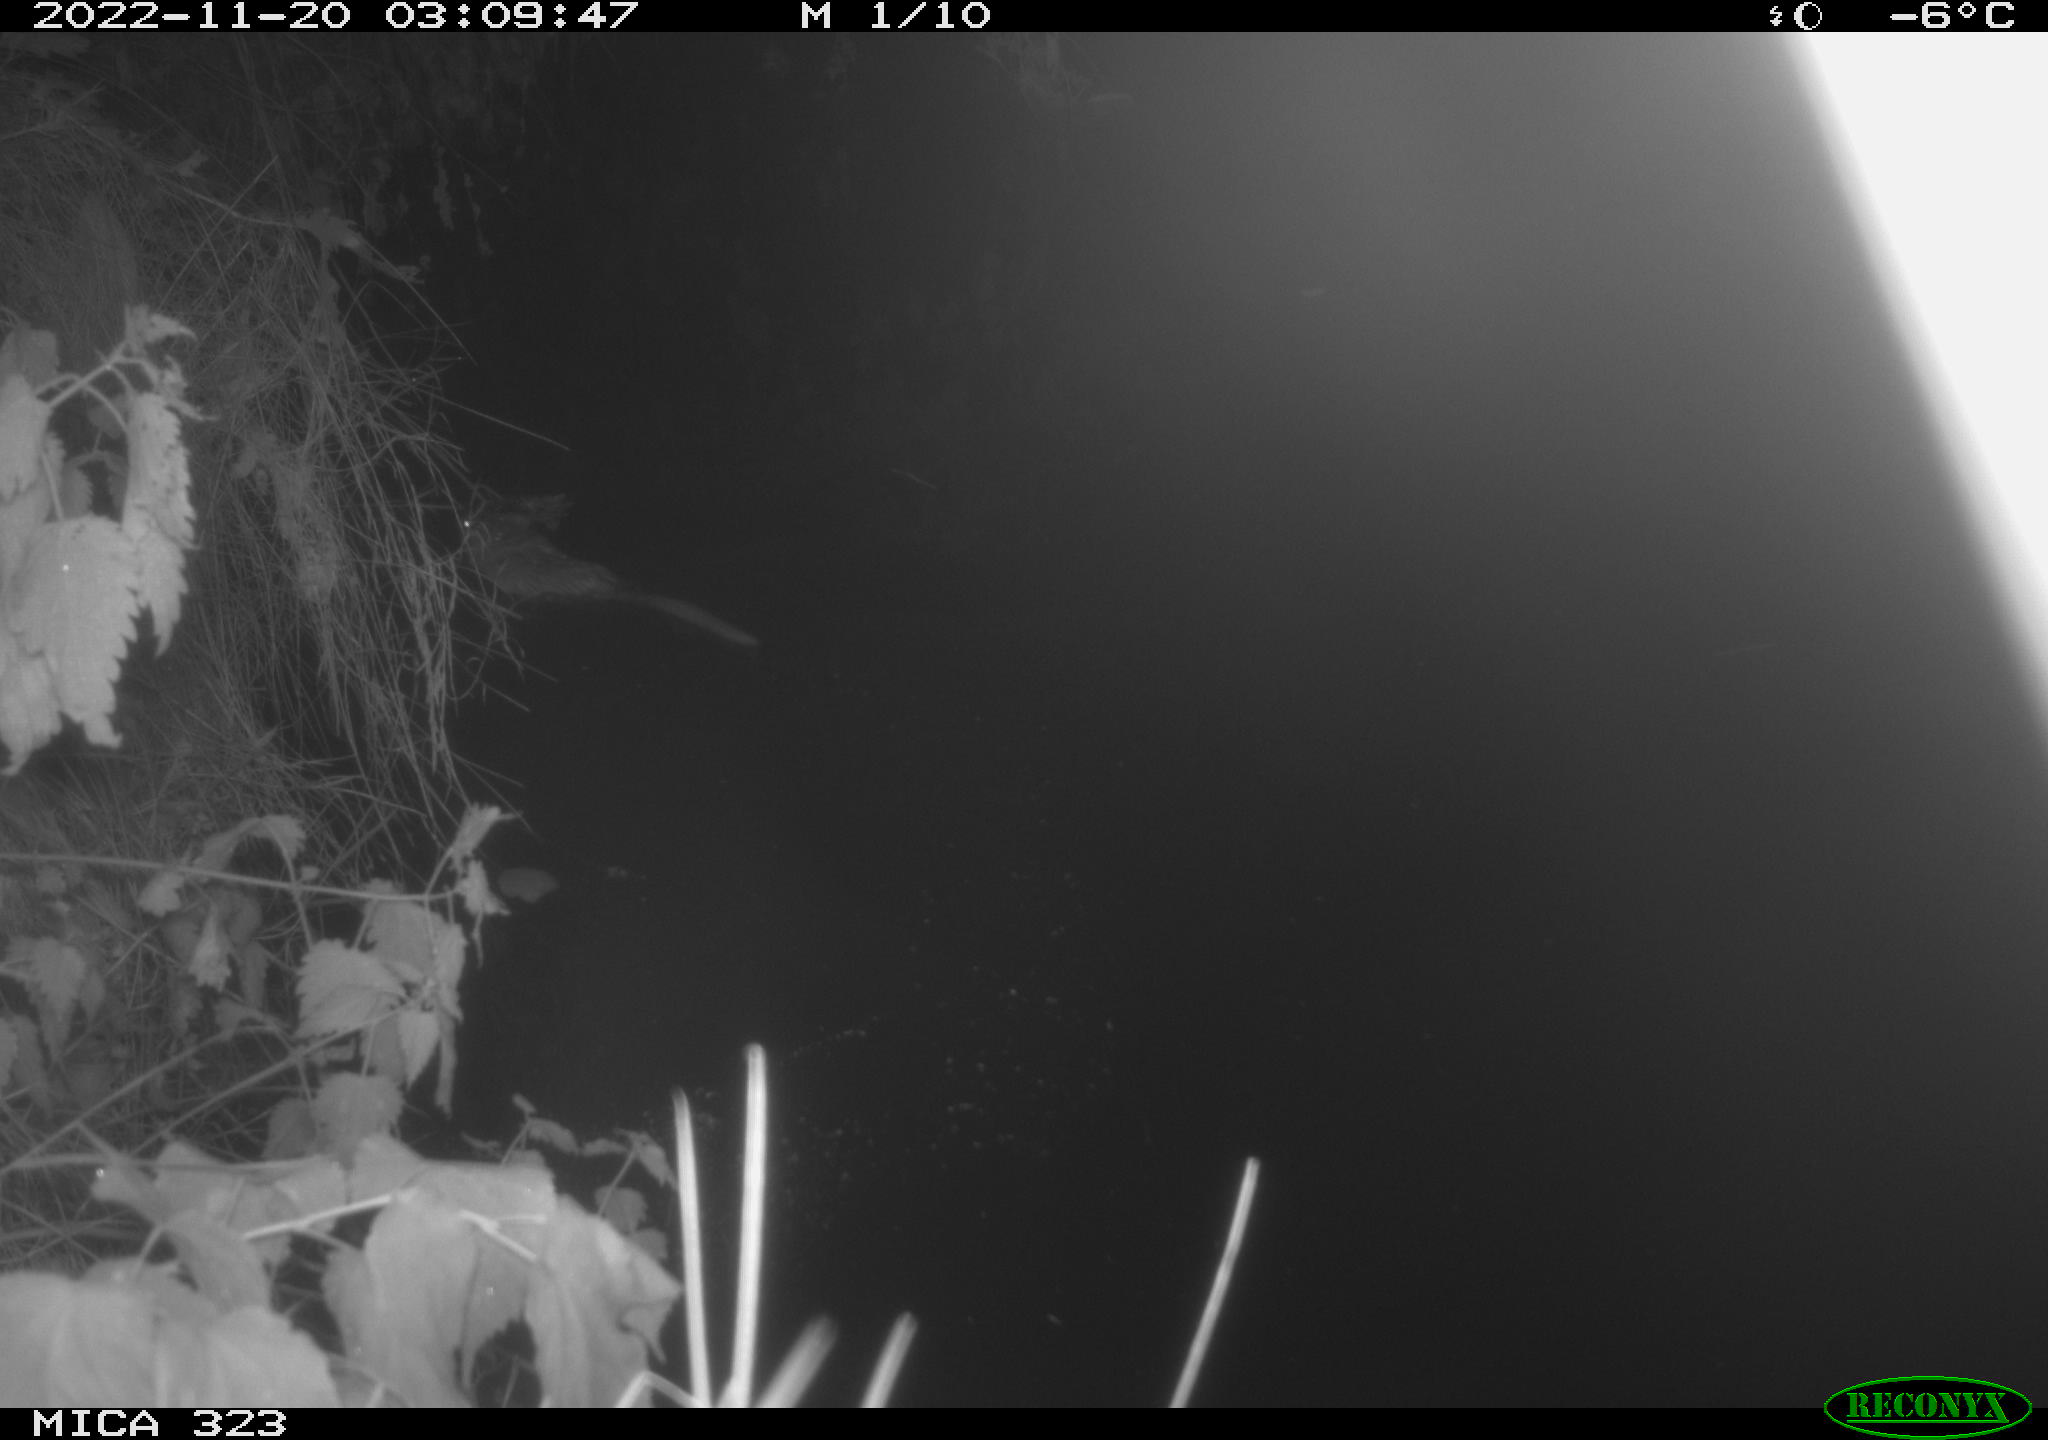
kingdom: Animalia
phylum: Chordata
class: Mammalia
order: Rodentia
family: Cricetidae
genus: Ondatra
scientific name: Ondatra zibethicus
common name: Muskrat
